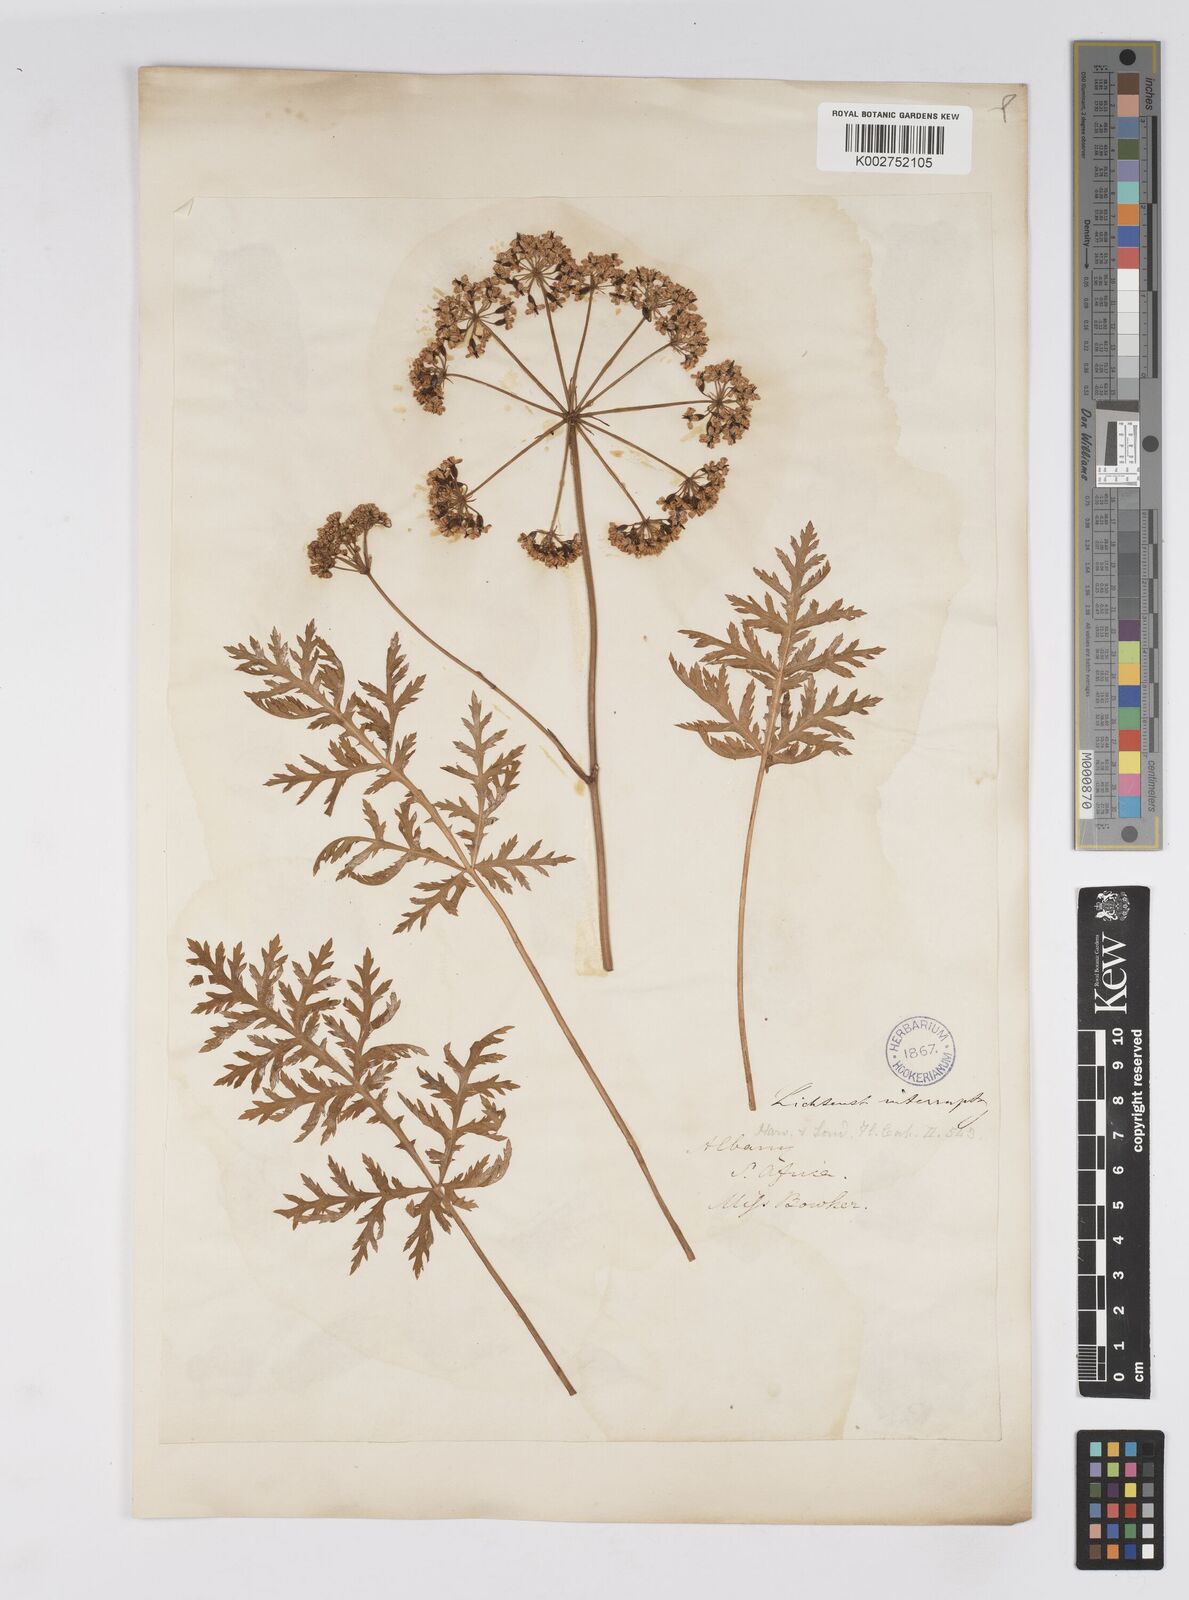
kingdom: Plantae
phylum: Tracheophyta
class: Magnoliopsida
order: Apiales
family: Apiaceae
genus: Lichtensteinia
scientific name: Lichtensteinia interrupta
